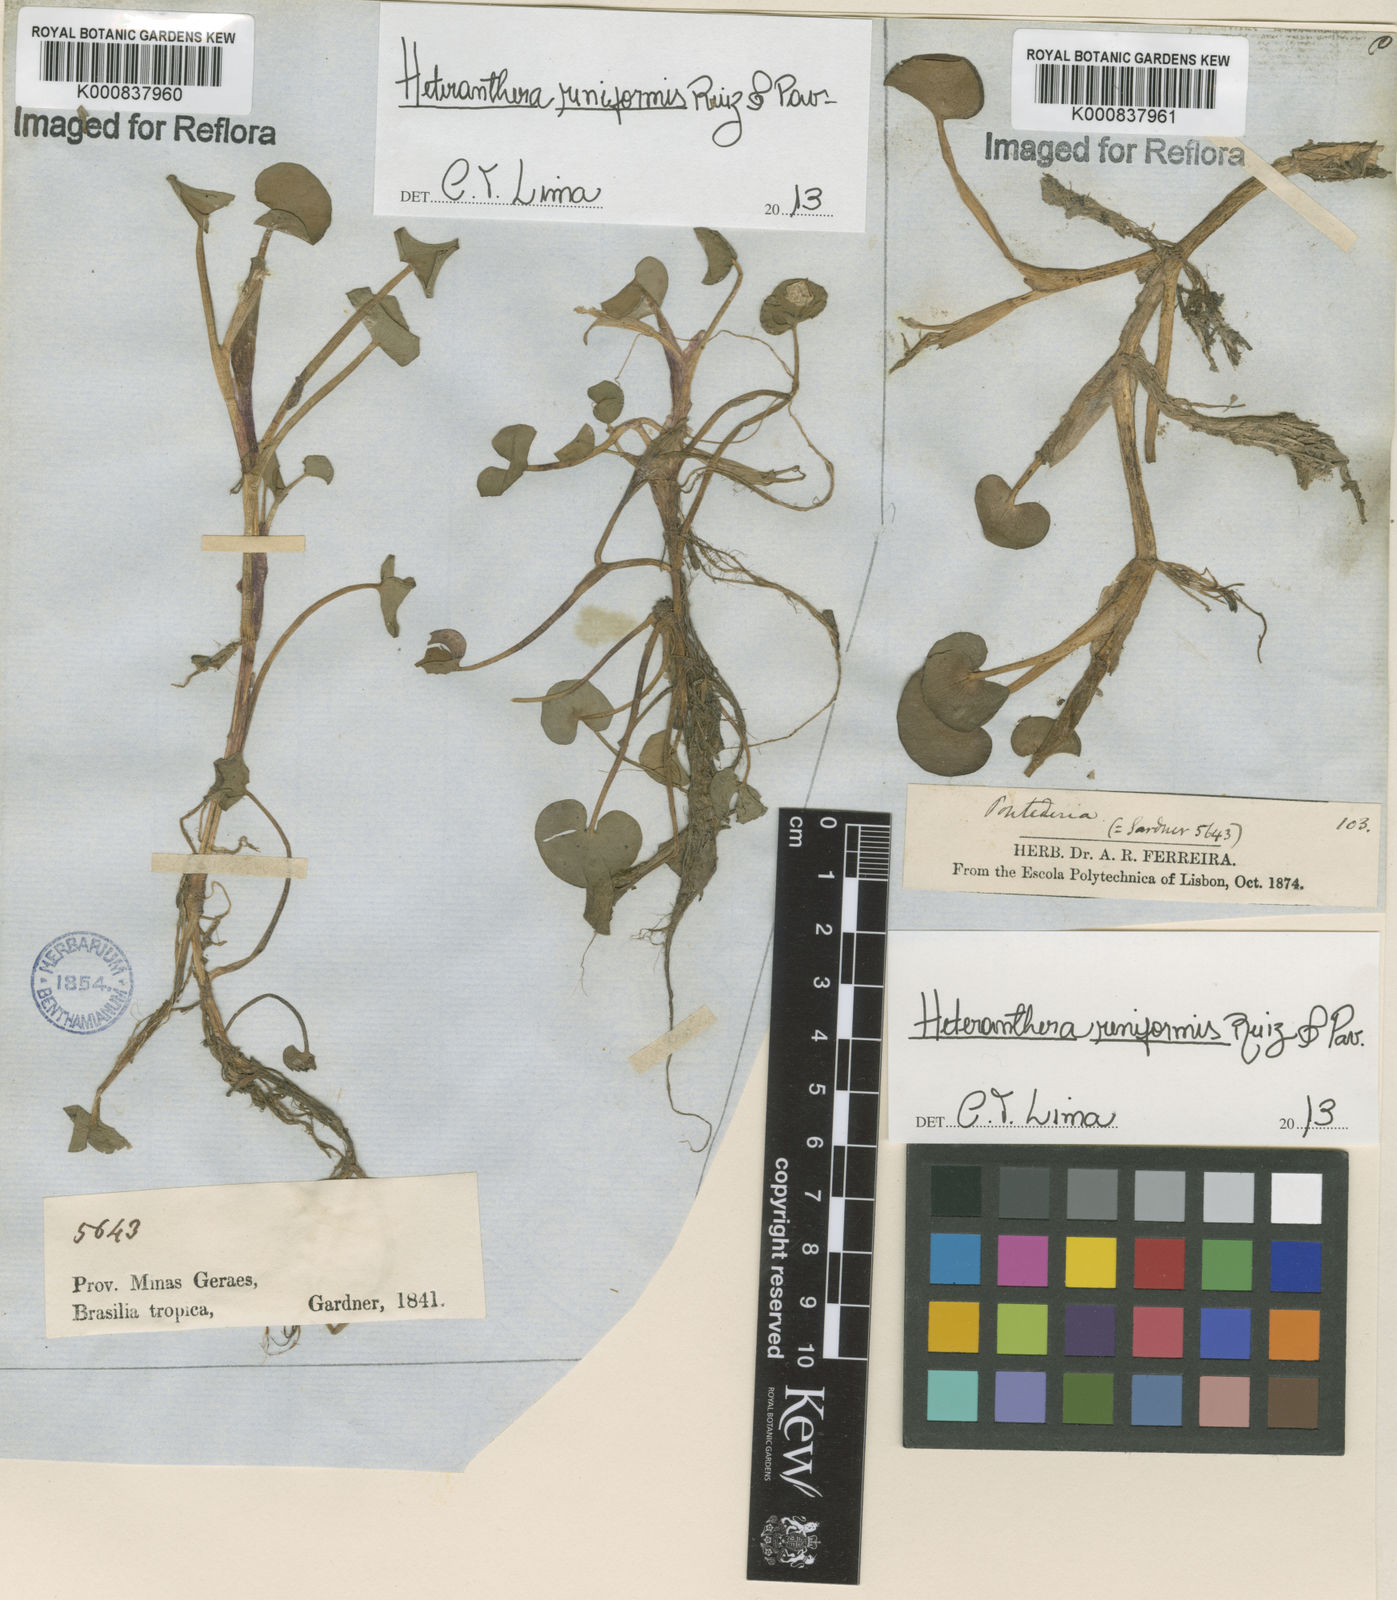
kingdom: Plantae
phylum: Tracheophyta
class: Liliopsida
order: Commelinales
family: Pontederiaceae
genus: Heteranthera
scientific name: Heteranthera reniformis
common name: Kidneyleaf mudplantain
